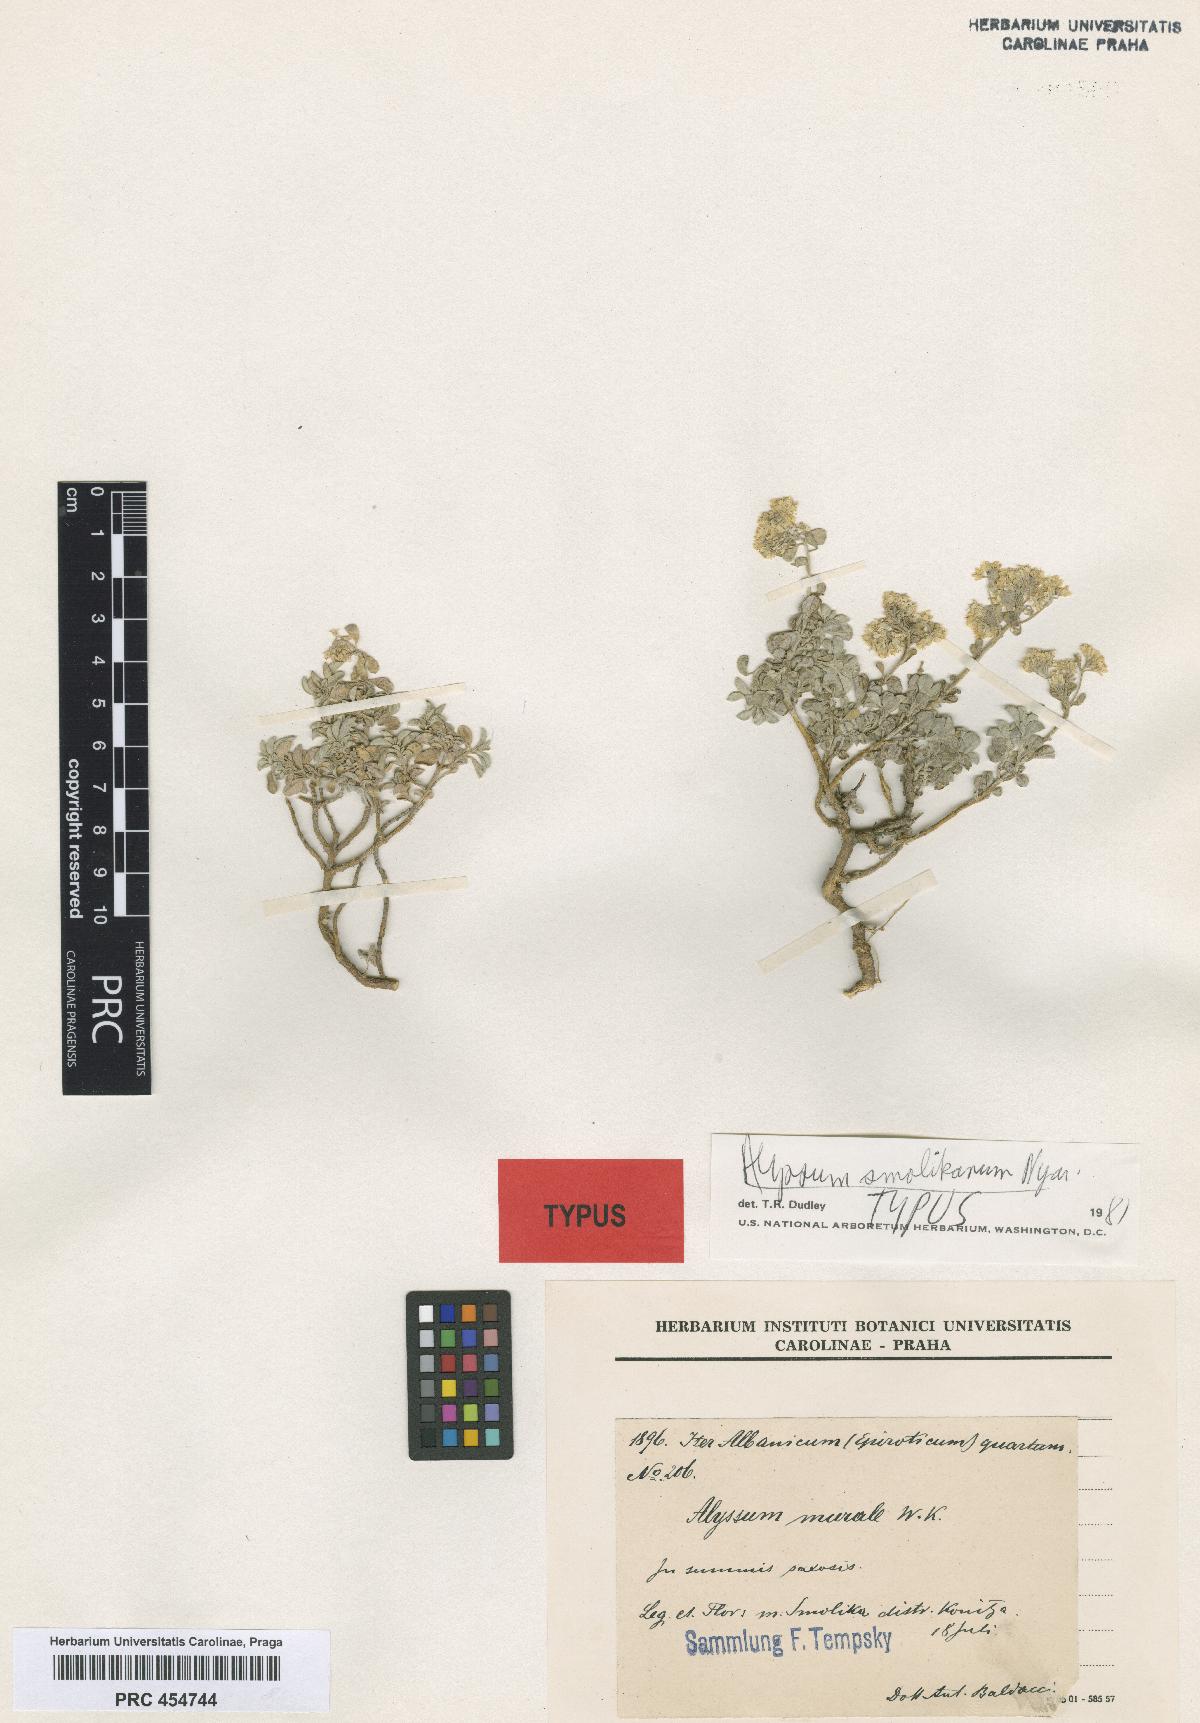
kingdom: Plantae
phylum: Tracheophyta
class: Magnoliopsida
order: Brassicales
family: Brassicaceae
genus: Odontarrhena
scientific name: Odontarrhena smolikana
